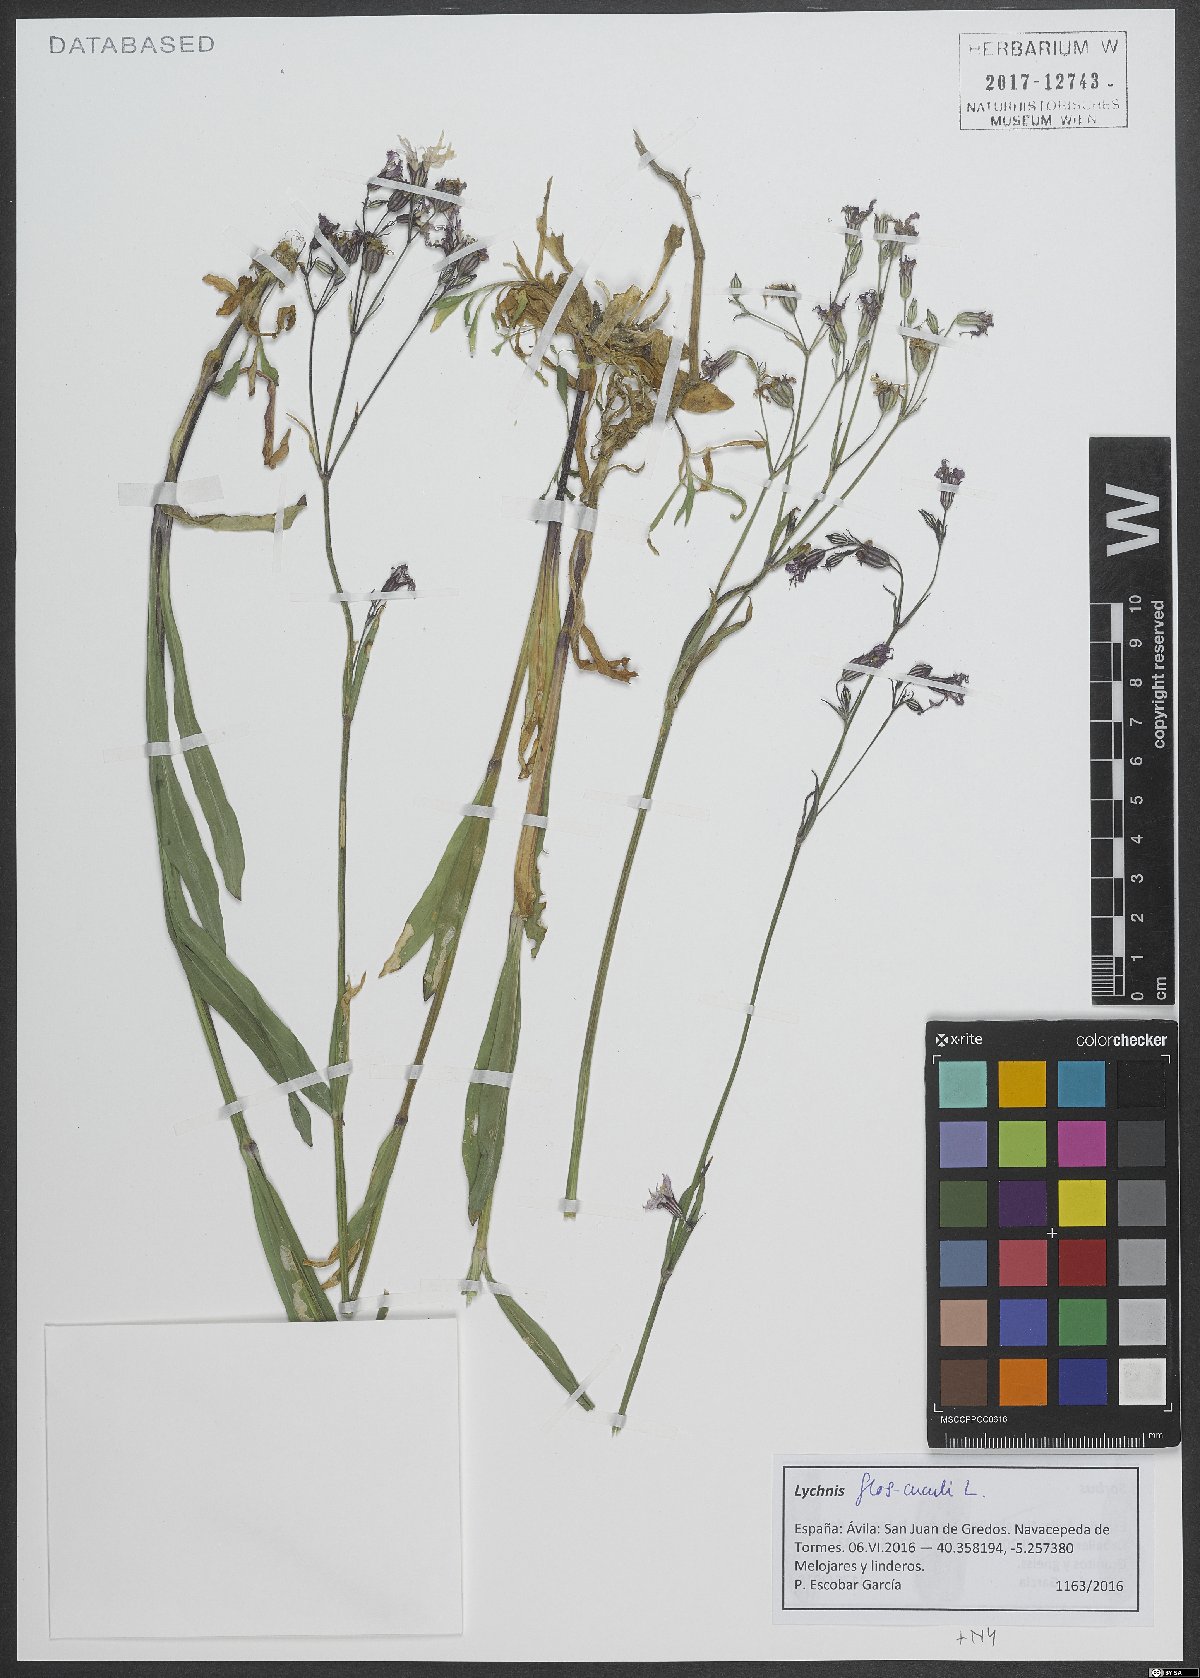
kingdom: Plantae
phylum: Tracheophyta
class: Magnoliopsida
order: Caryophyllales
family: Caryophyllaceae
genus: Silene
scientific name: Silene flos-cuculi
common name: Ragged-robin
